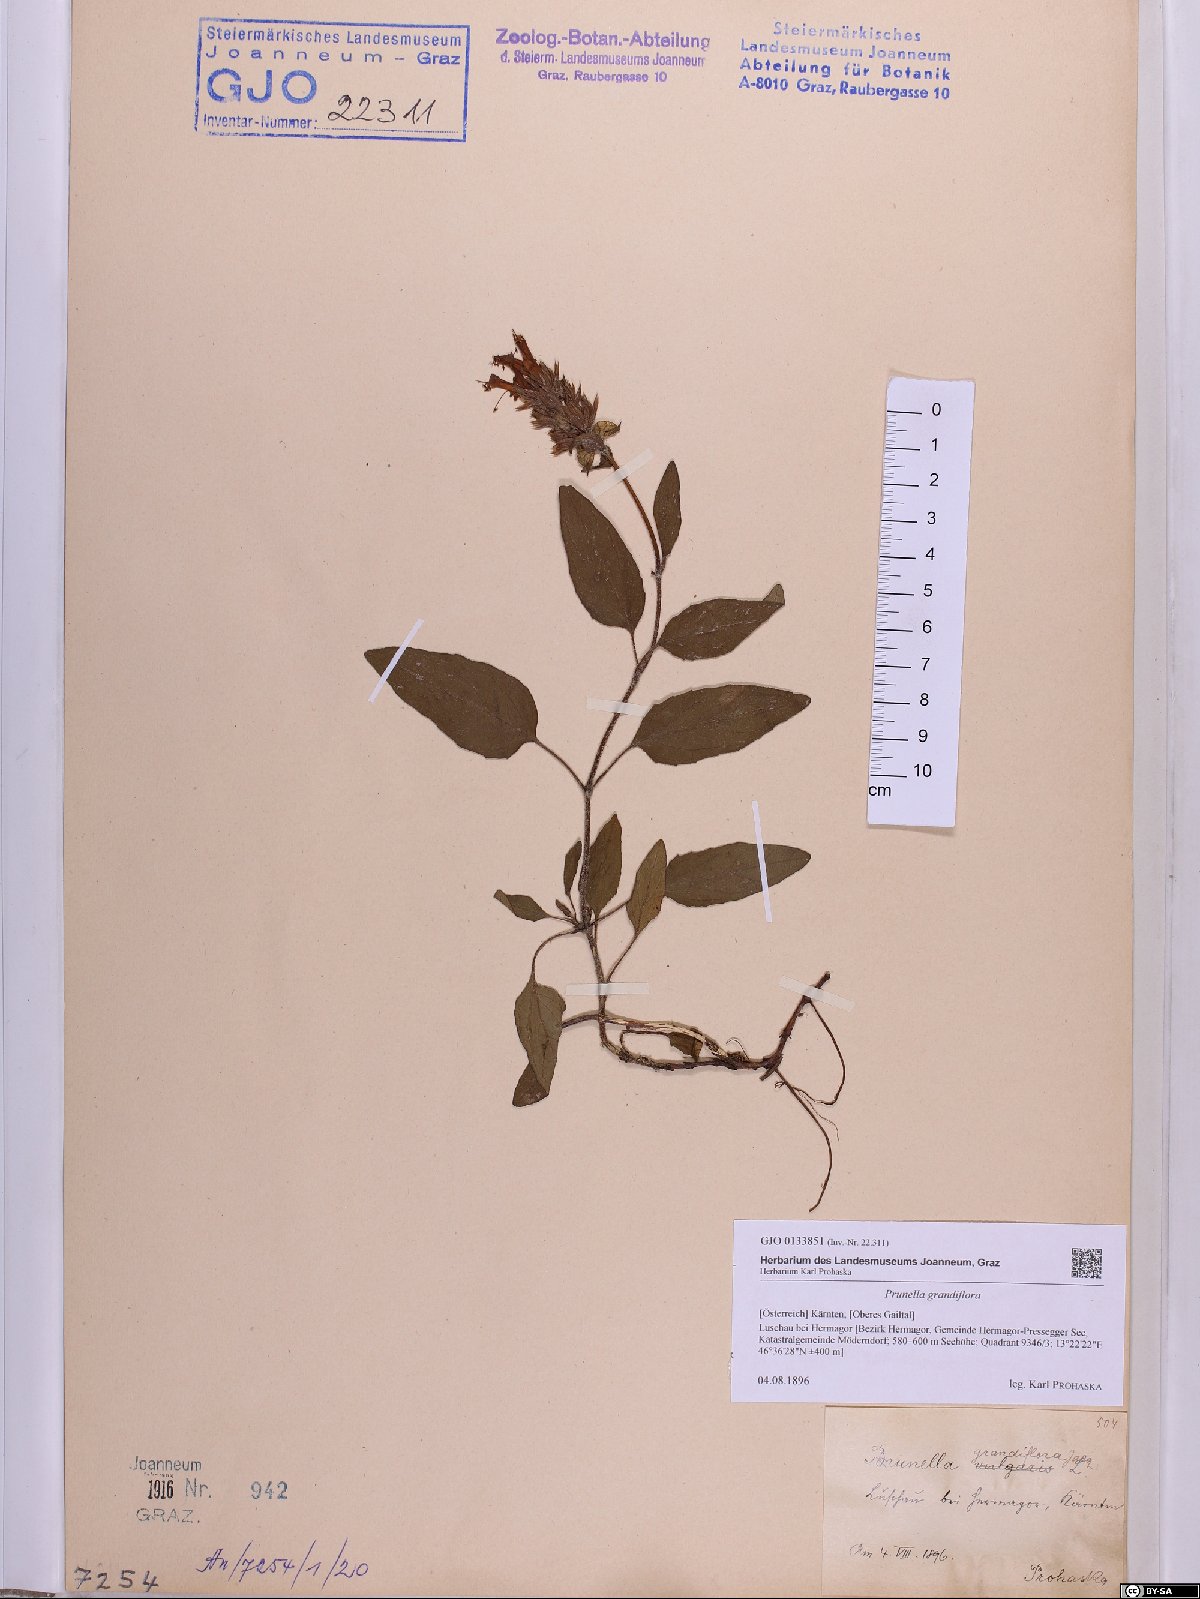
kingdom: Plantae
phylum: Tracheophyta
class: Magnoliopsida
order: Lamiales
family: Lamiaceae
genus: Prunella
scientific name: Prunella grandiflora
